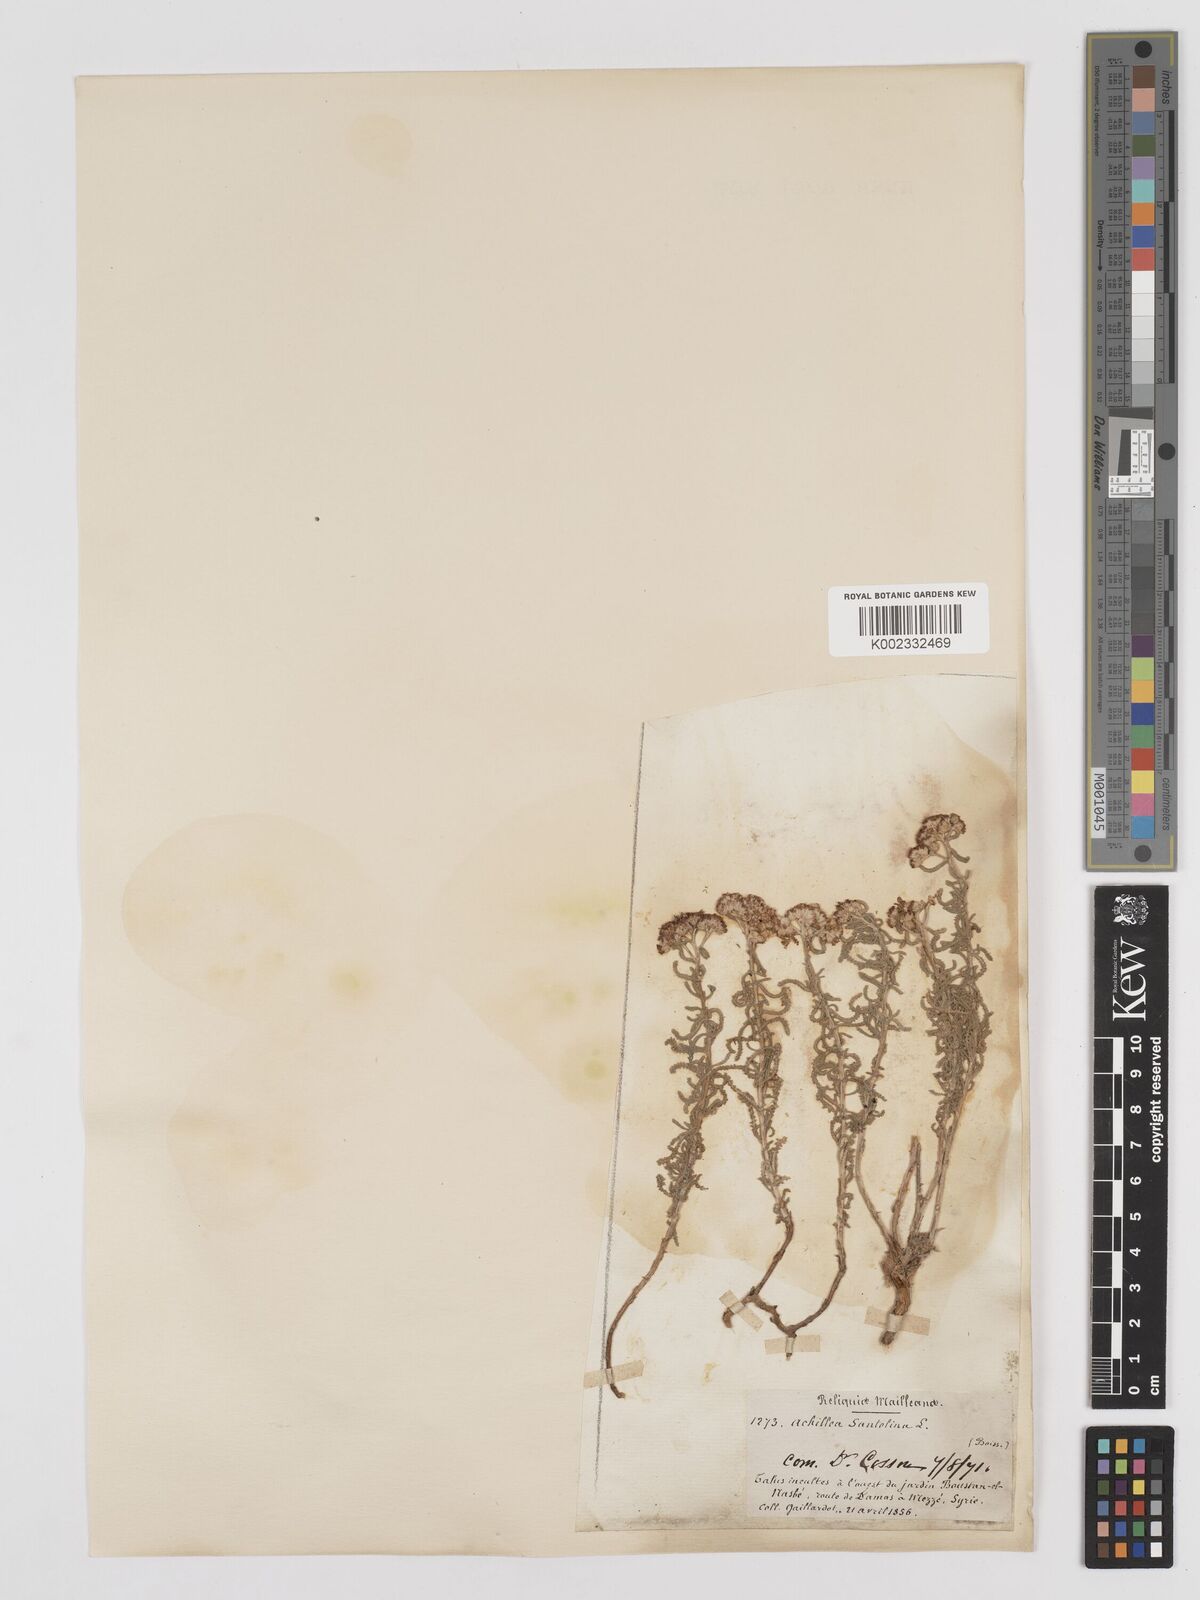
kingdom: Plantae
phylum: Tracheophyta
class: Magnoliopsida
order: Asterales
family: Asteraceae
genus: Achillea
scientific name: Achillea tenuifolia
